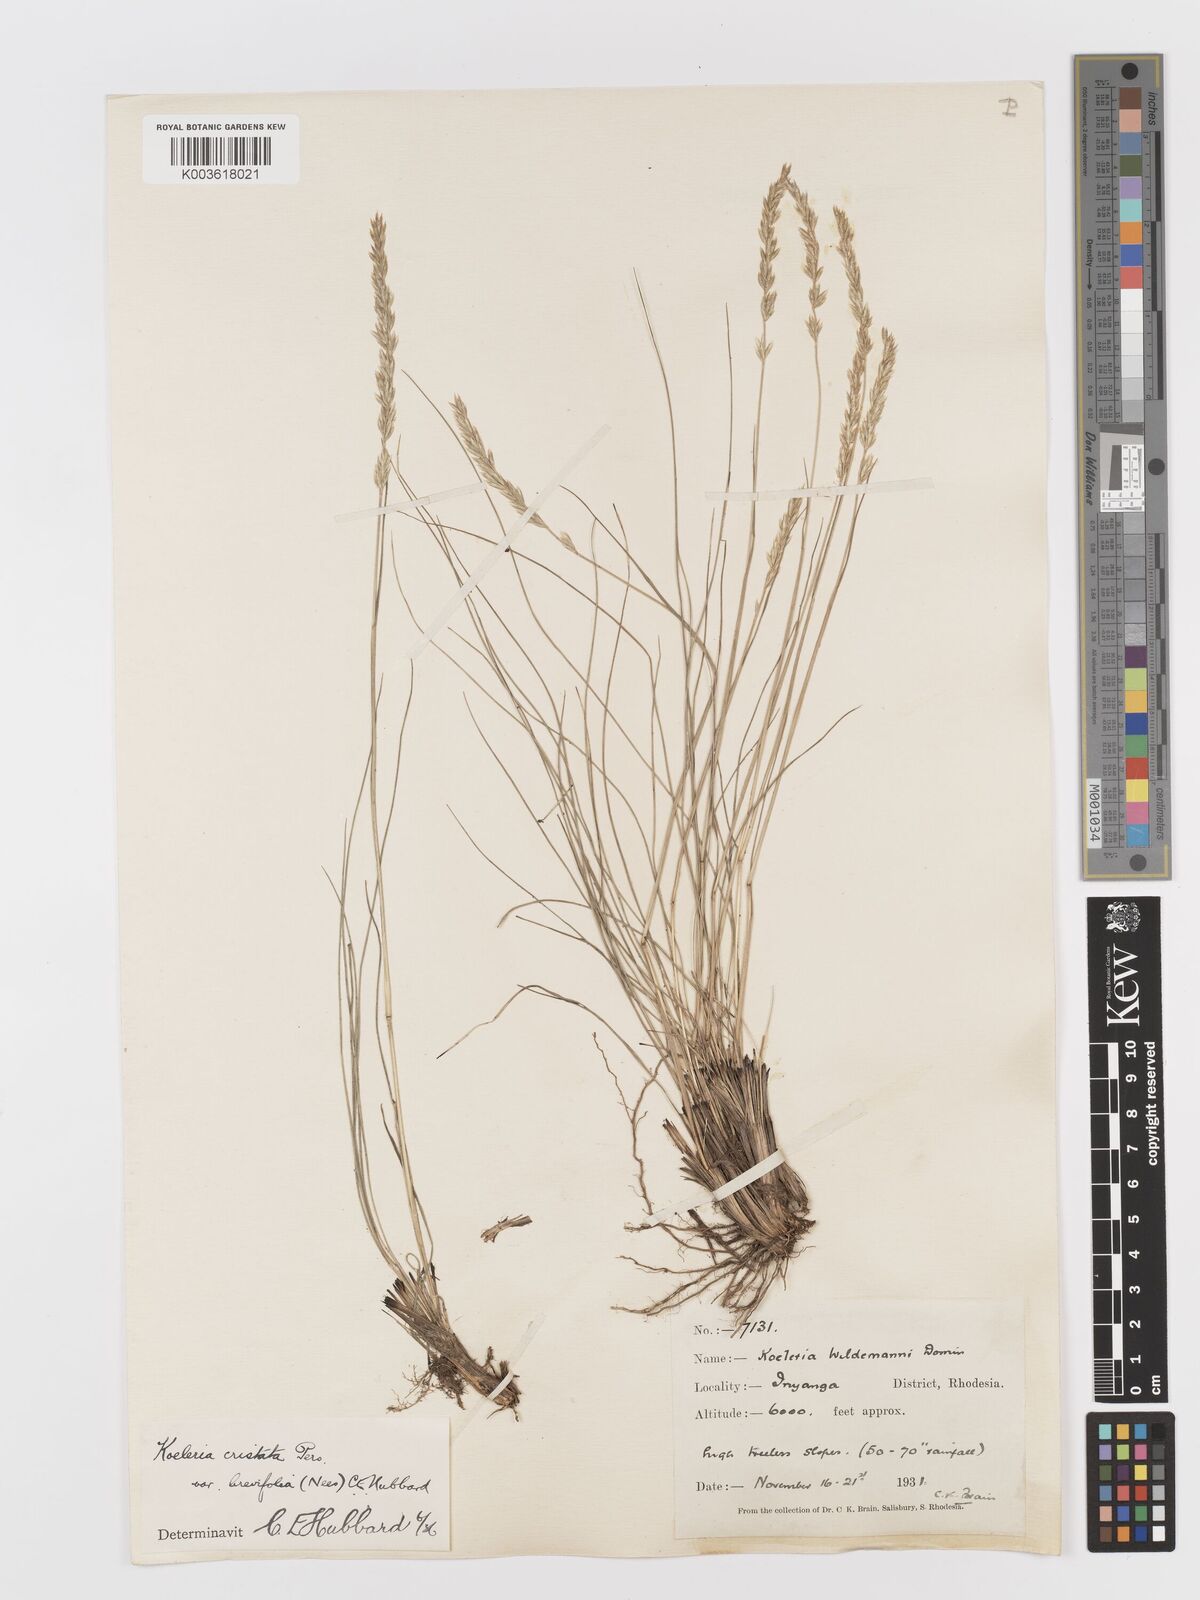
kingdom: Plantae
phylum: Tracheophyta
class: Liliopsida
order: Poales
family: Poaceae
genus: Koeleria
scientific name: Koeleria capensis
